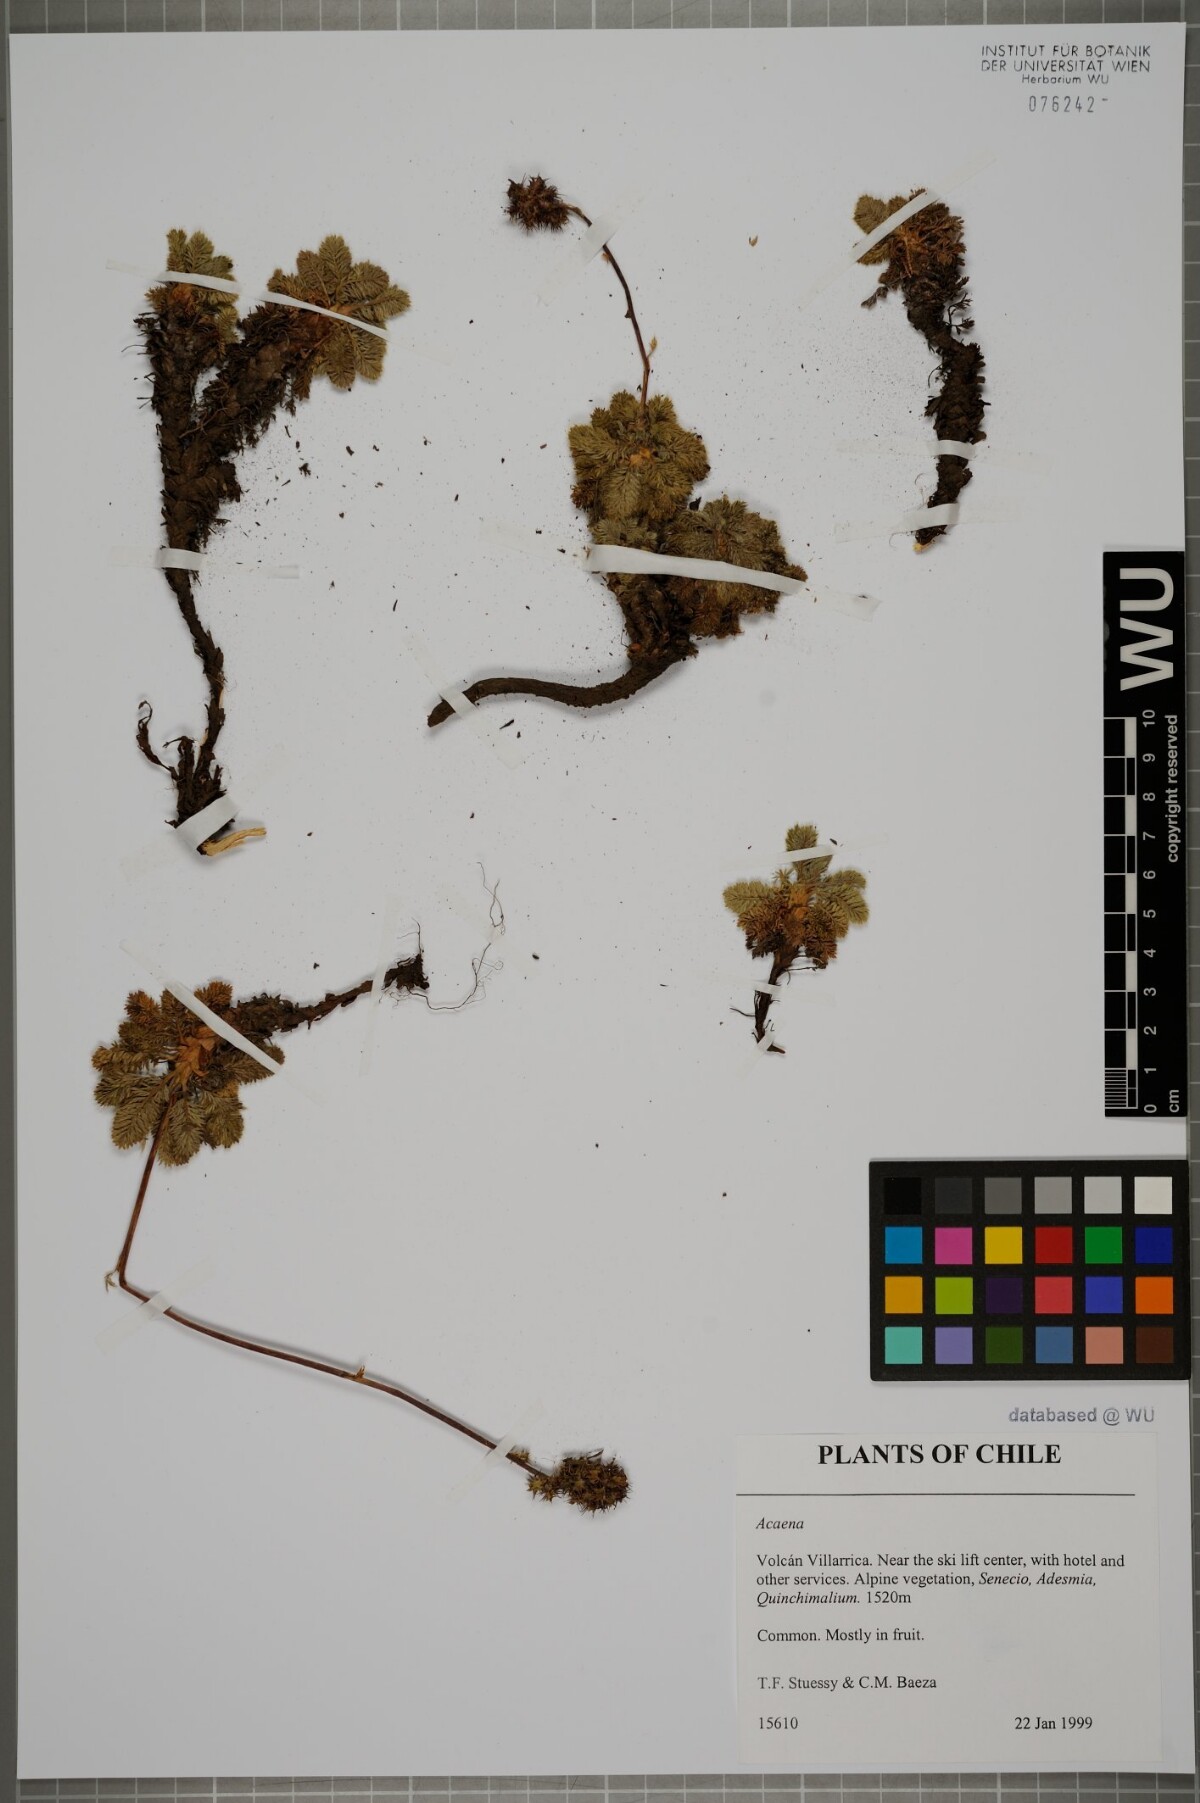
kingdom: Plantae
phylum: Tracheophyta
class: Magnoliopsida
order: Rosales
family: Rosaceae
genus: Acaena
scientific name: Acaena
